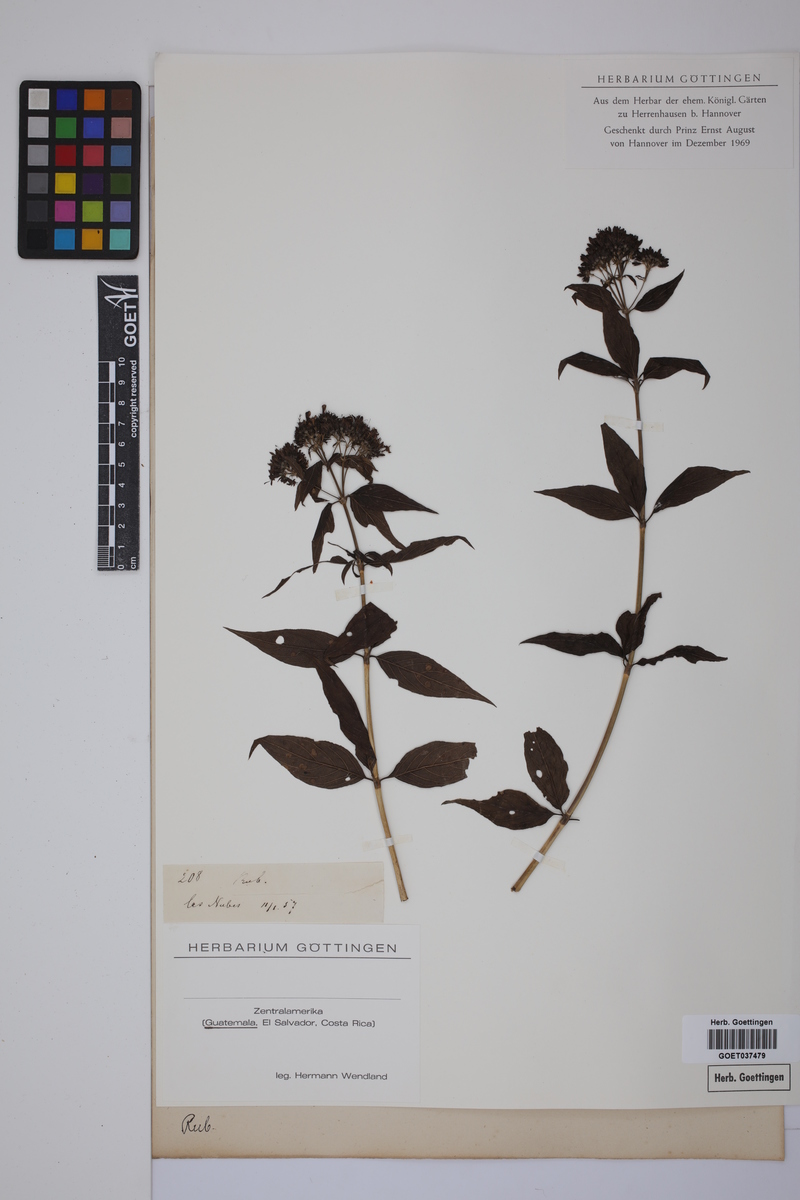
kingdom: Plantae
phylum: Tracheophyta
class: Magnoliopsida
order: Gentianales
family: Rubiaceae
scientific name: Rubiaceae
